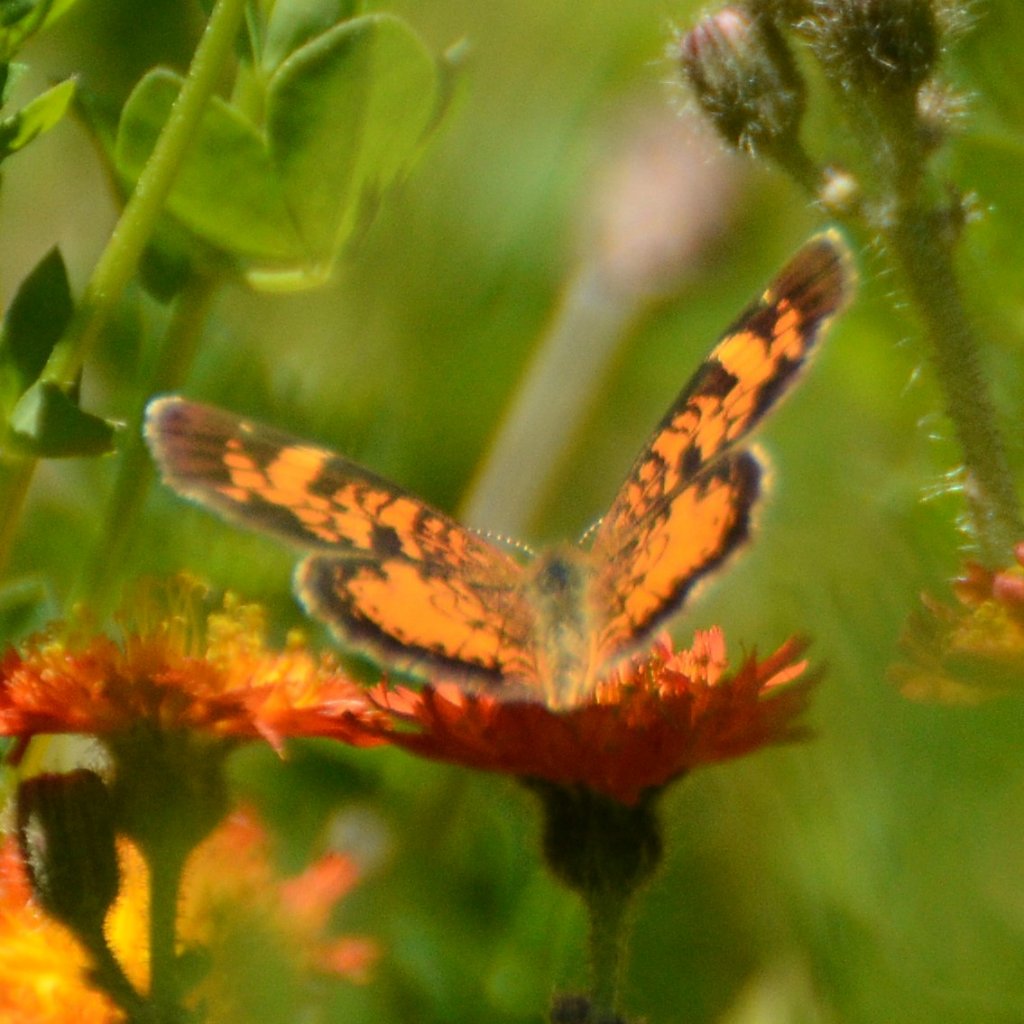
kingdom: Animalia
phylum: Arthropoda
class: Insecta
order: Lepidoptera
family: Nymphalidae
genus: Phyciodes
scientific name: Phyciodes tharos
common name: Northern Crescent
